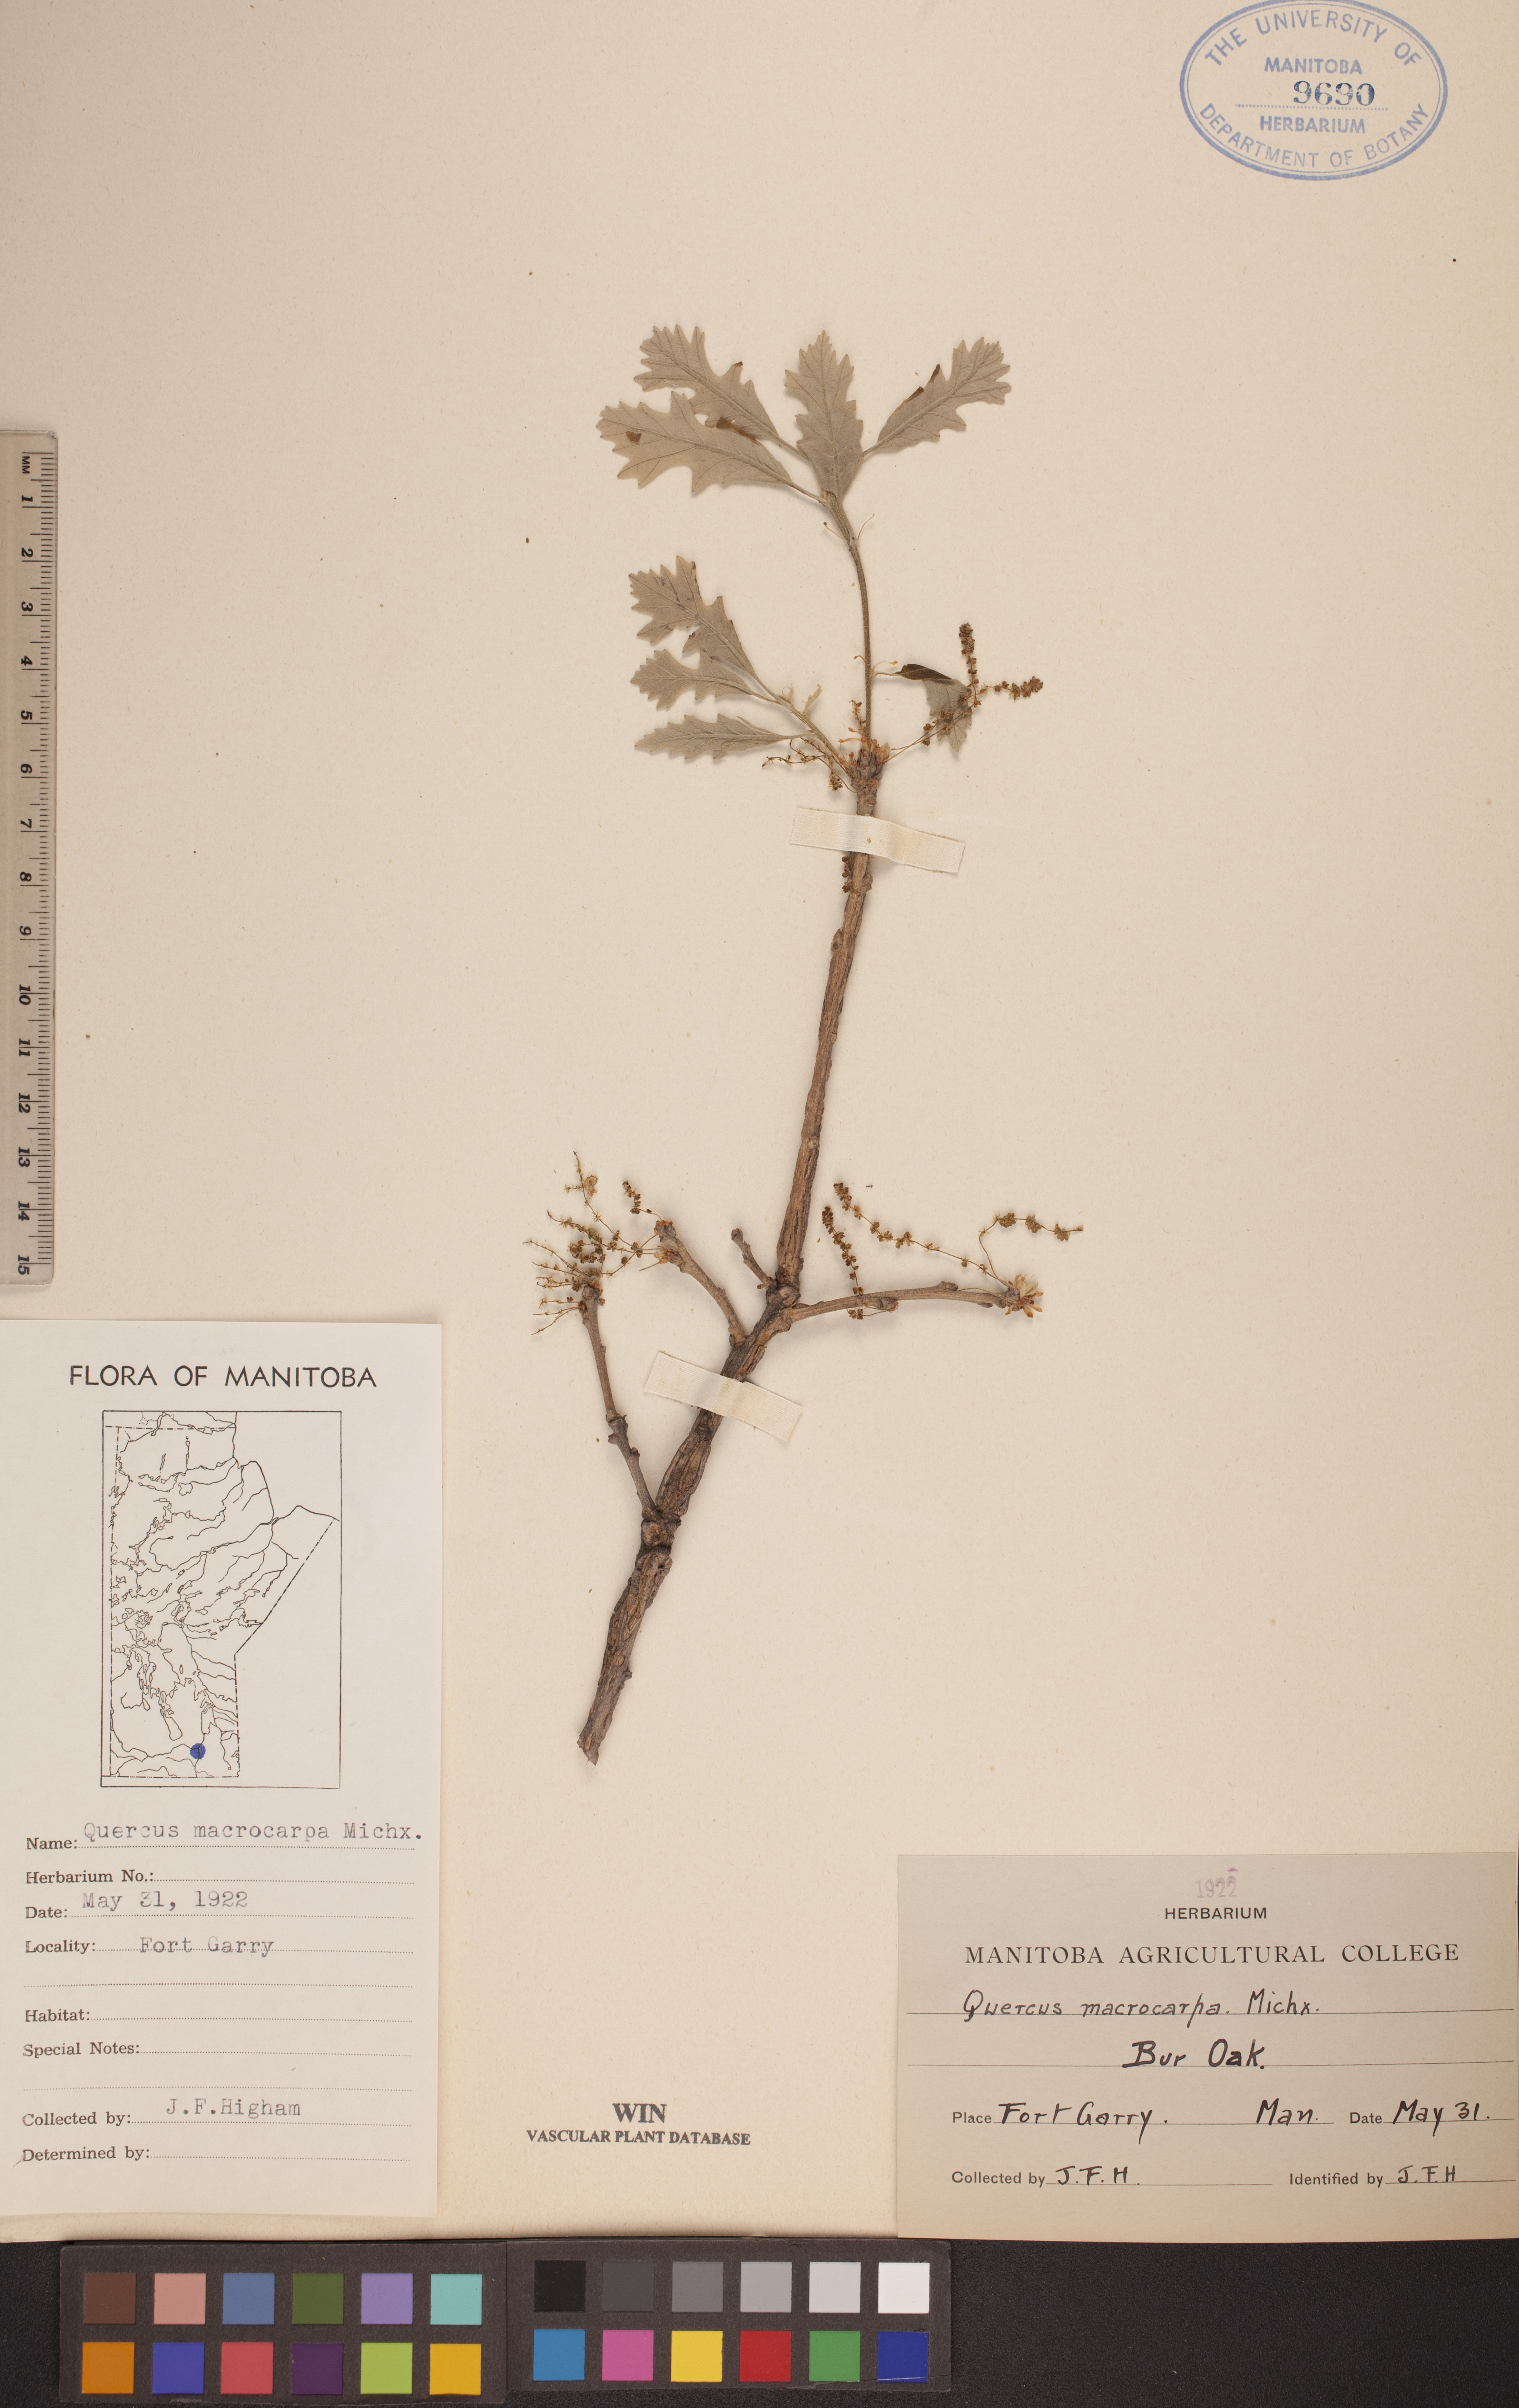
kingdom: Plantae
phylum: Tracheophyta
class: Magnoliopsida
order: Fagales
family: Fagaceae
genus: Quercus
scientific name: Quercus macrocarpa
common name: Bur oak
